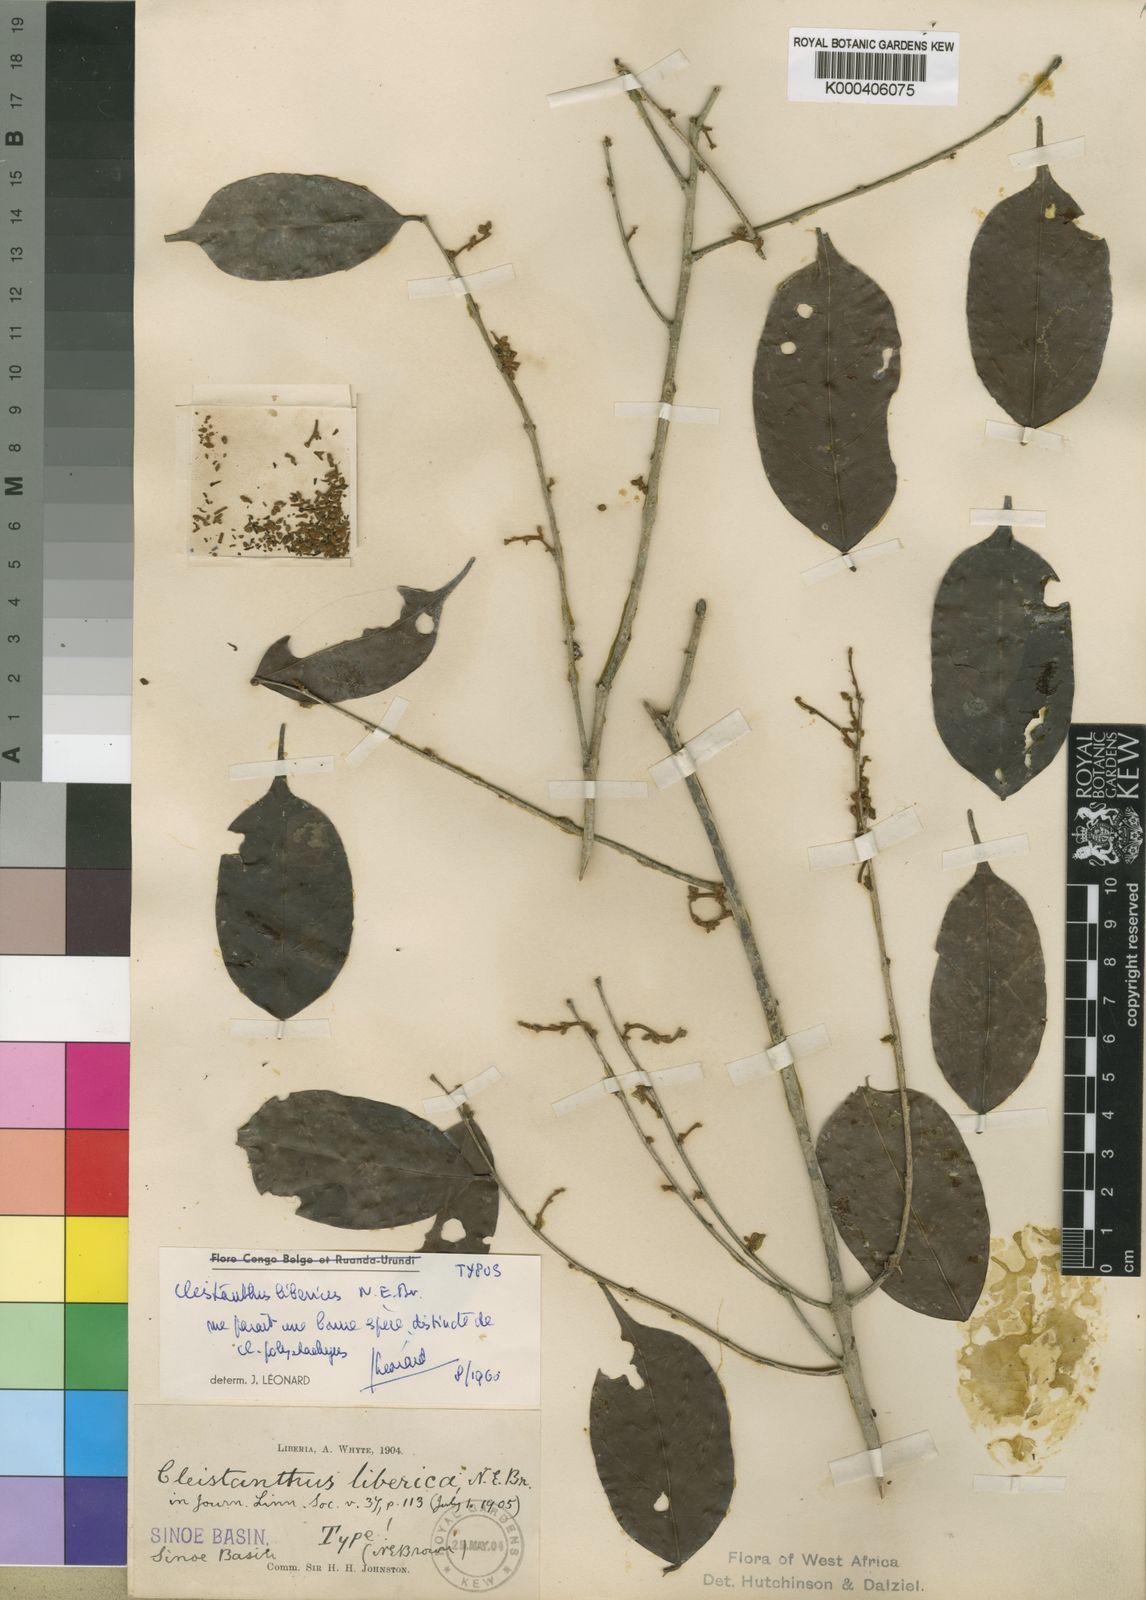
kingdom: Plantae
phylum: Tracheophyta
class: Magnoliopsida
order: Malpighiales
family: Phyllanthaceae
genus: Cleistanthus
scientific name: Cleistanthus libericus
